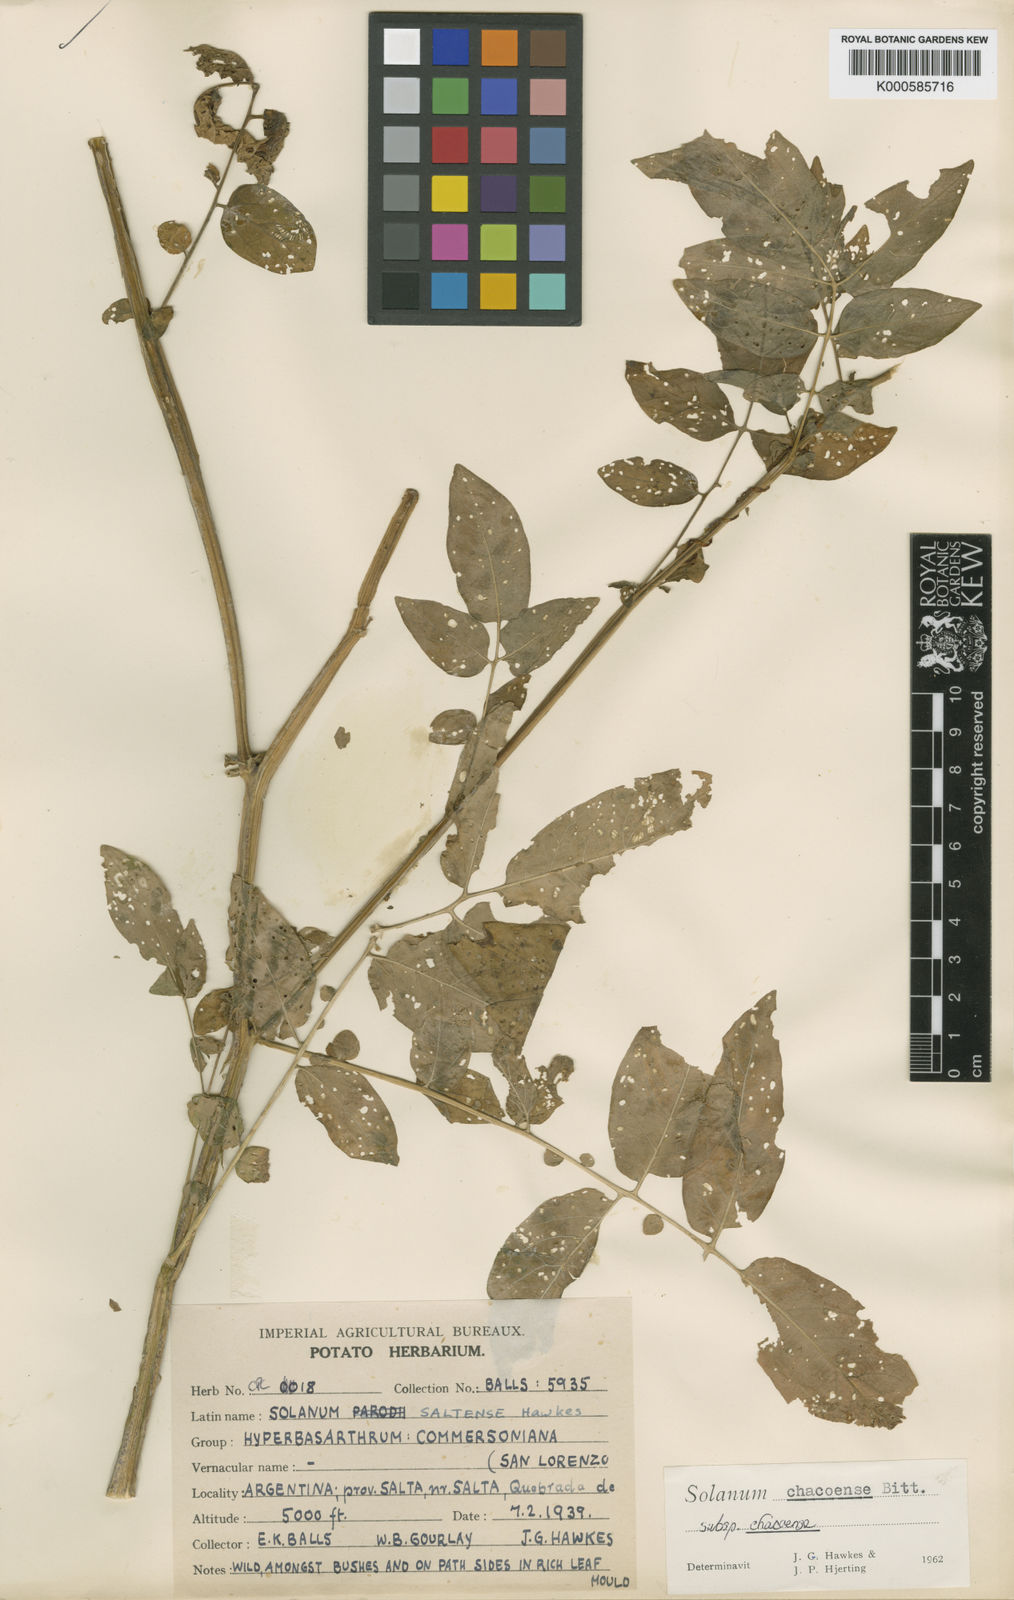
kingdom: Plantae
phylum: Tracheophyta
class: Magnoliopsida
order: Solanales
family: Solanaceae
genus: Solanum
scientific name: Solanum
